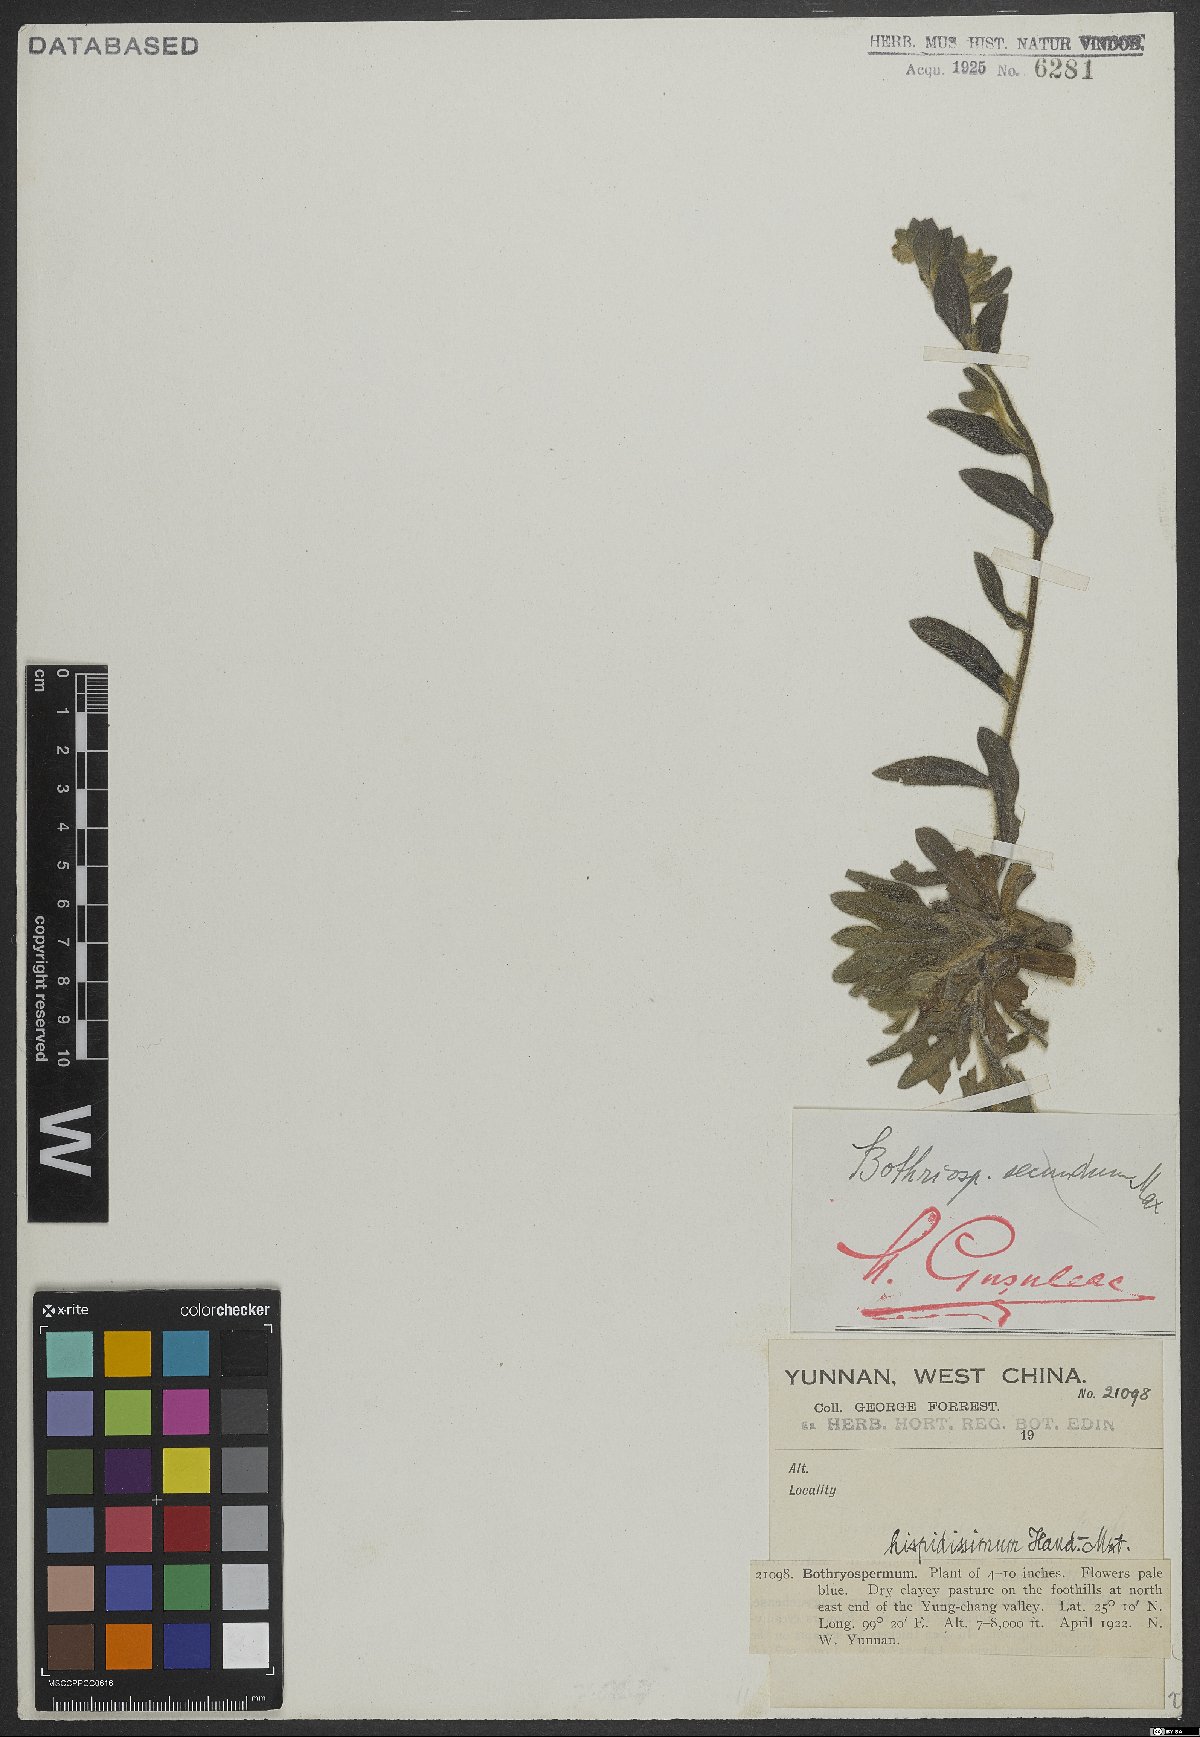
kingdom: Plantae
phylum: Tracheophyta
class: Magnoliopsida
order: Boraginales
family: Boraginaceae
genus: Bothriospermum
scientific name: Bothriospermum hispidissimum
